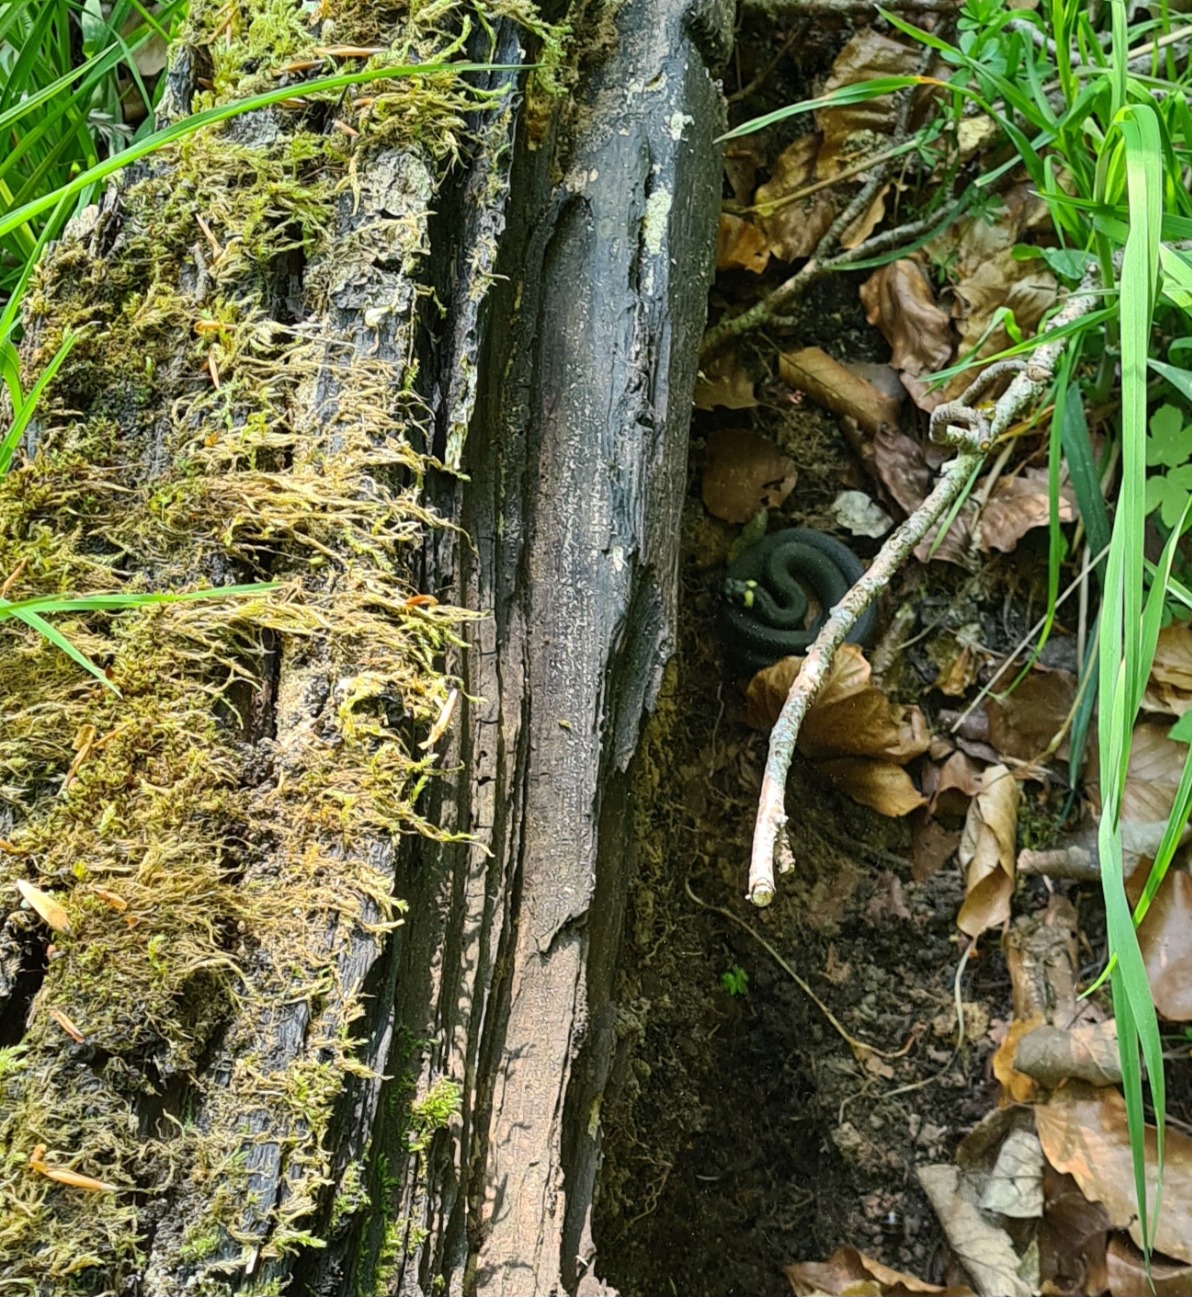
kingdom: Animalia
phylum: Chordata
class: Squamata
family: Colubridae
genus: Natrix
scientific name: Natrix natrix
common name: Snog
